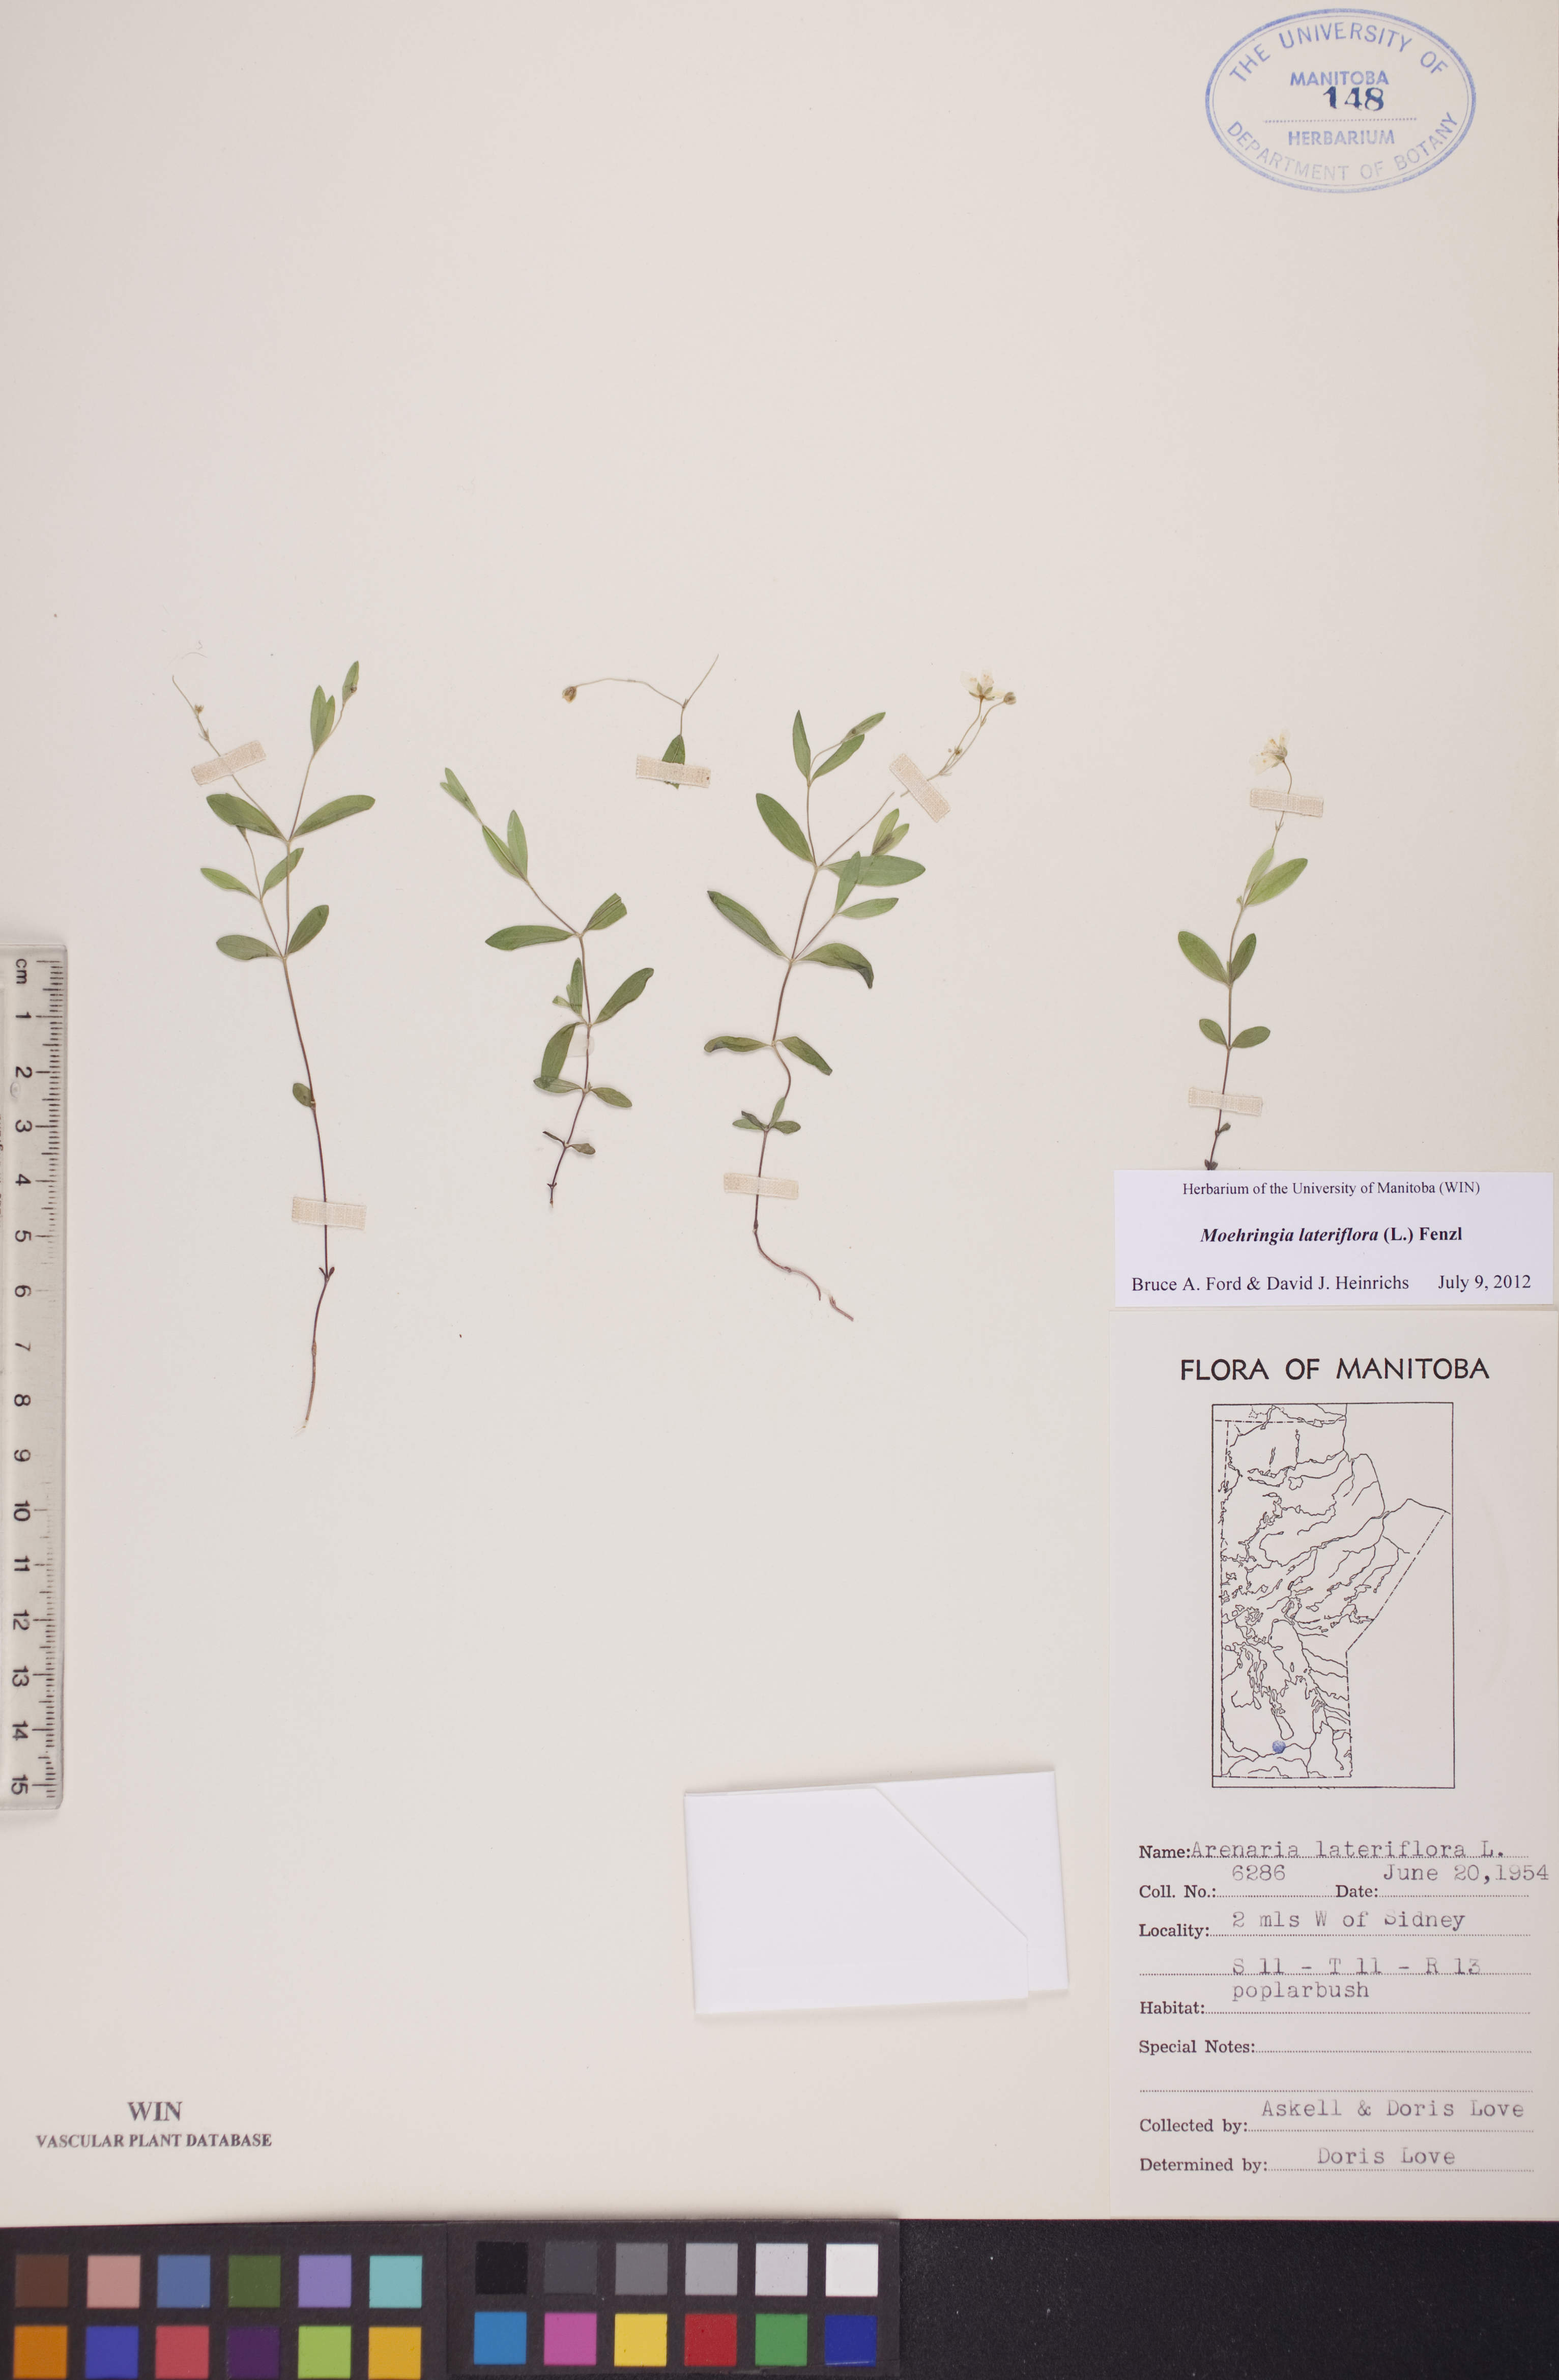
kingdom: Plantae
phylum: Tracheophyta
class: Magnoliopsida
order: Caryophyllales
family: Caryophyllaceae
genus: Moehringia
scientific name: Moehringia lateriflora
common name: Blunt-leaved sandwort
